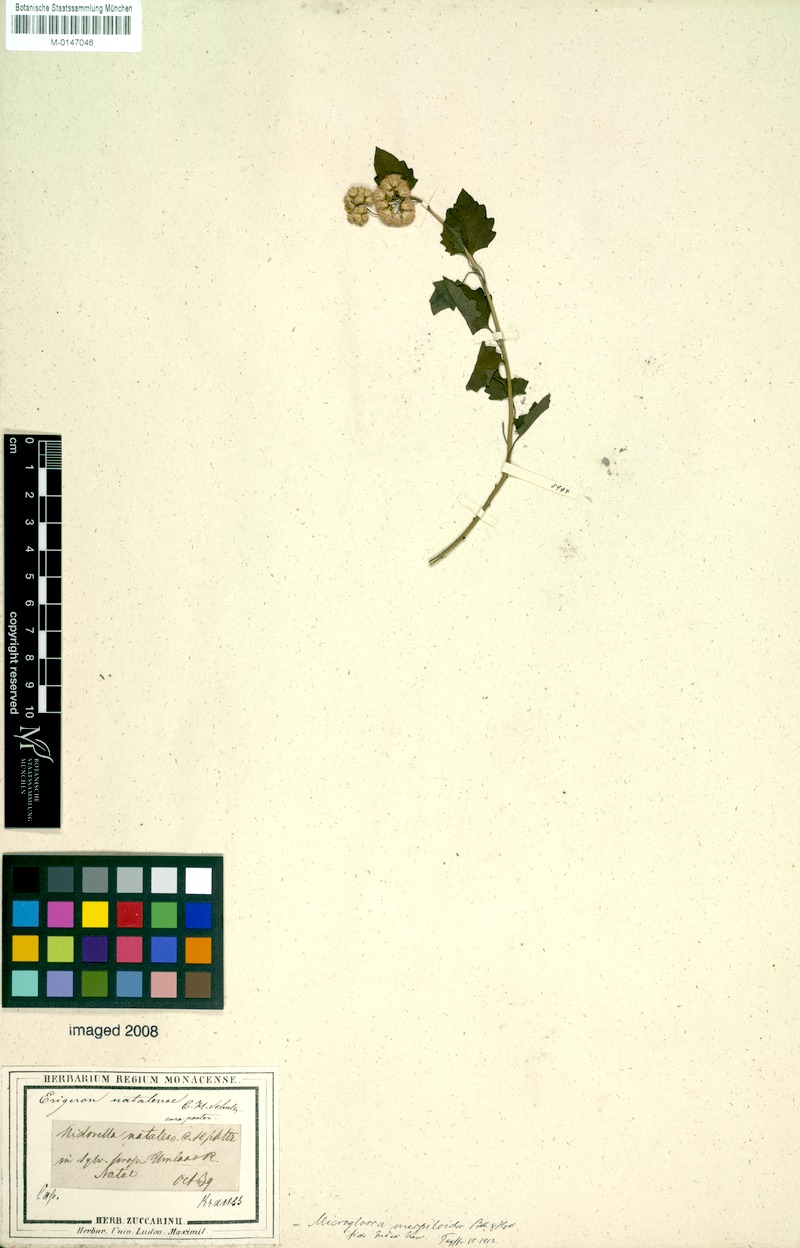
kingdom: Plantae
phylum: Tracheophyta
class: Magnoliopsida
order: Asterales
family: Asteraceae
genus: Microglossa
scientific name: Microglossa mespilifolia
